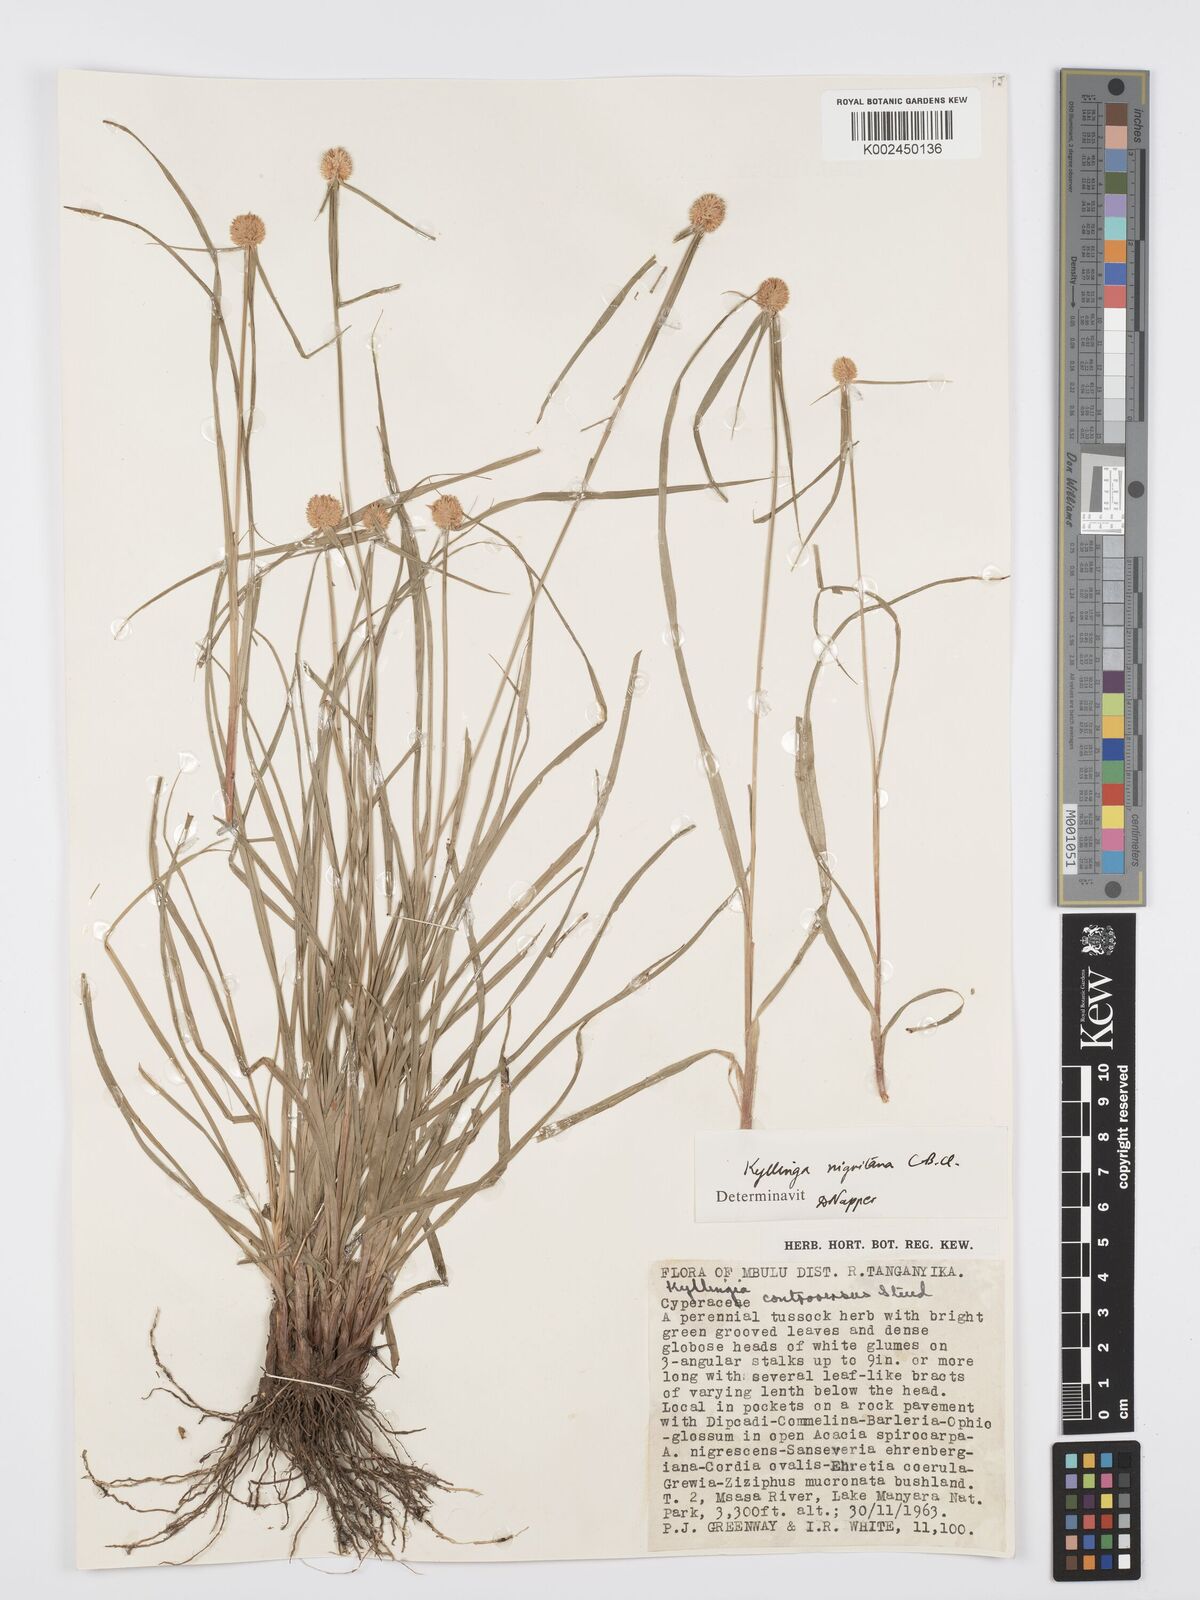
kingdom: Plantae
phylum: Tracheophyta
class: Liliopsida
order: Poales
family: Cyperaceae
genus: Cyperus
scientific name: Cyperus
